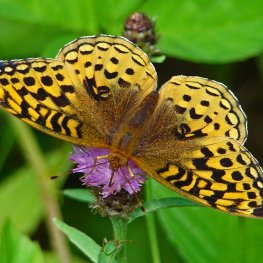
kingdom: Animalia
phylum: Arthropoda
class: Insecta
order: Lepidoptera
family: Nymphalidae
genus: Speyeria
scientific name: Speyeria cybele
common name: Great Spangled Fritillary
